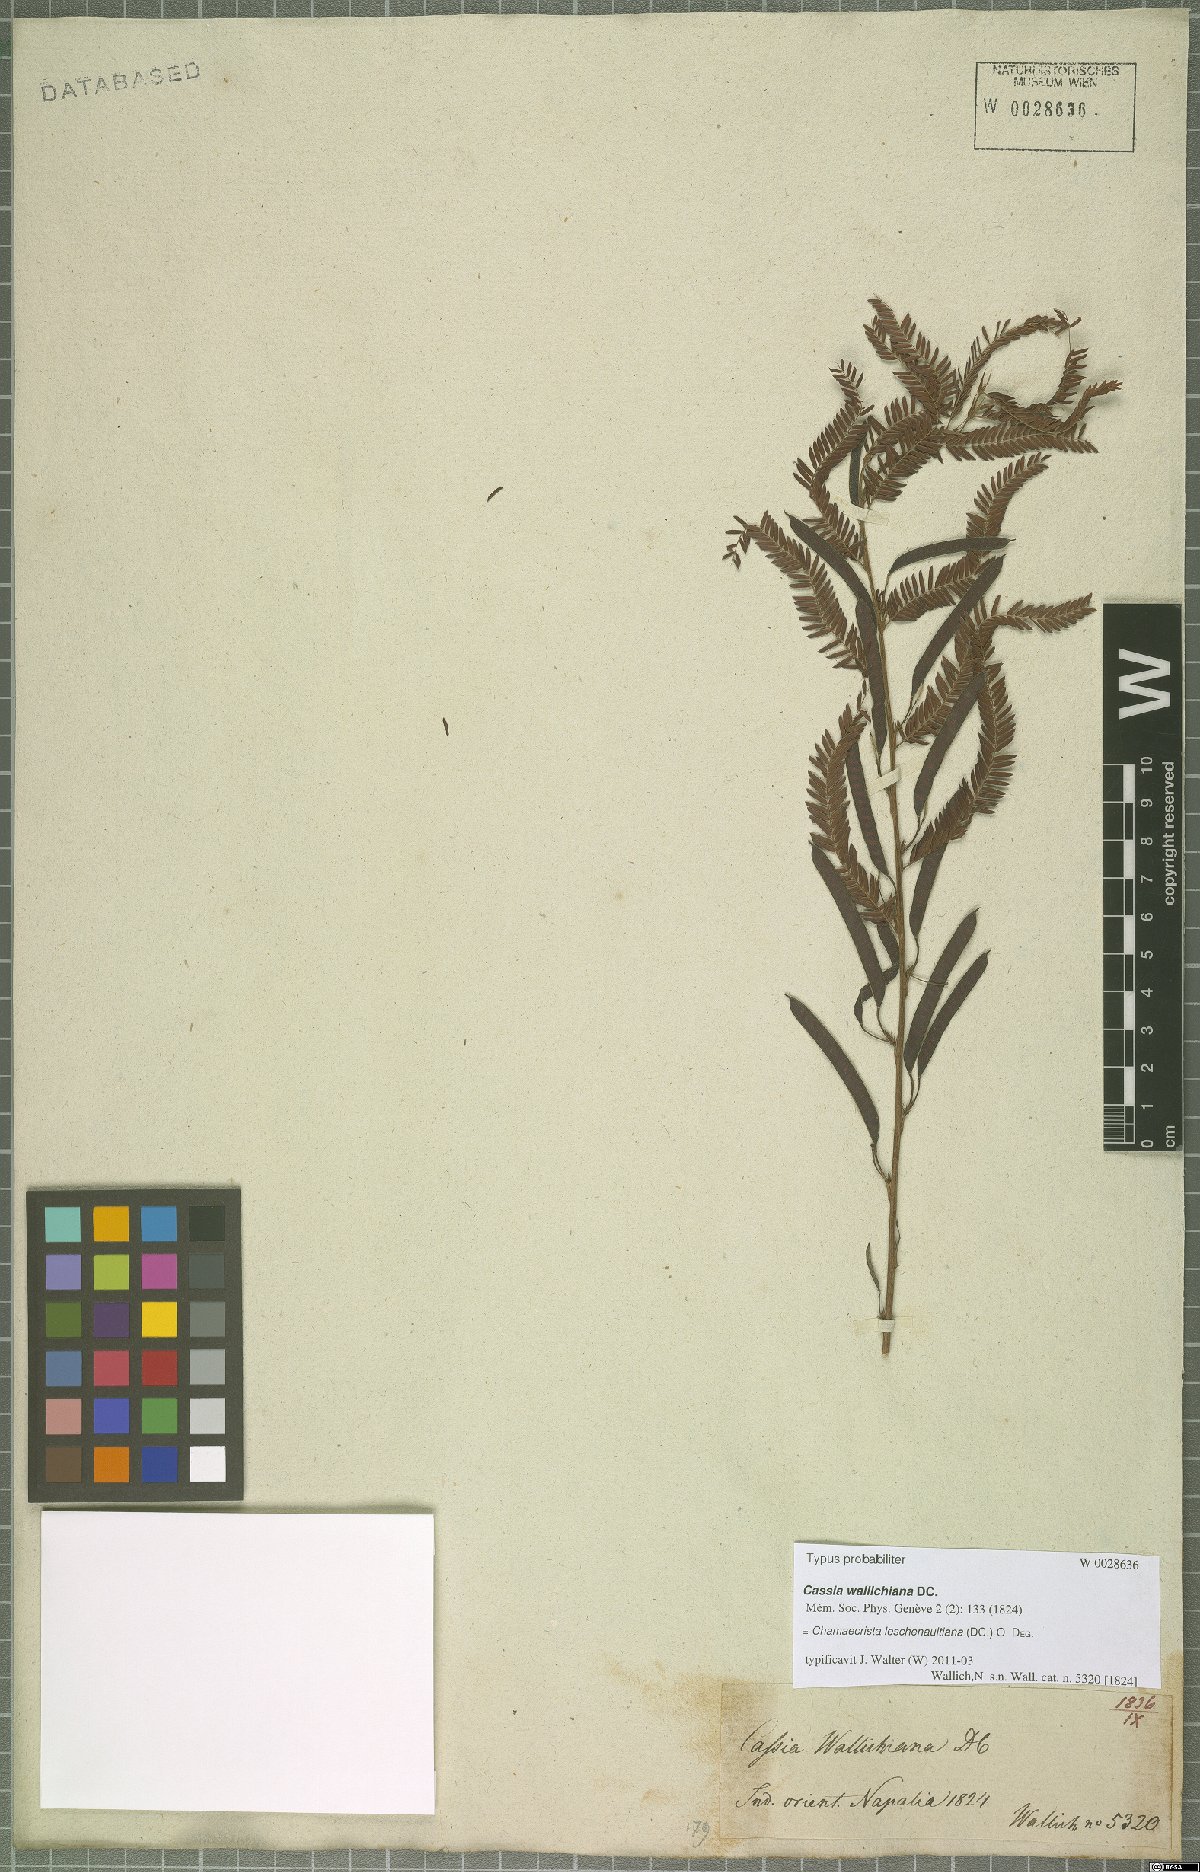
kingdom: Plantae
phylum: Tracheophyta
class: Magnoliopsida
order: Fabales
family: Fabaceae
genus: Chamaecrista
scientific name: Chamaecrista leschenaultiana
